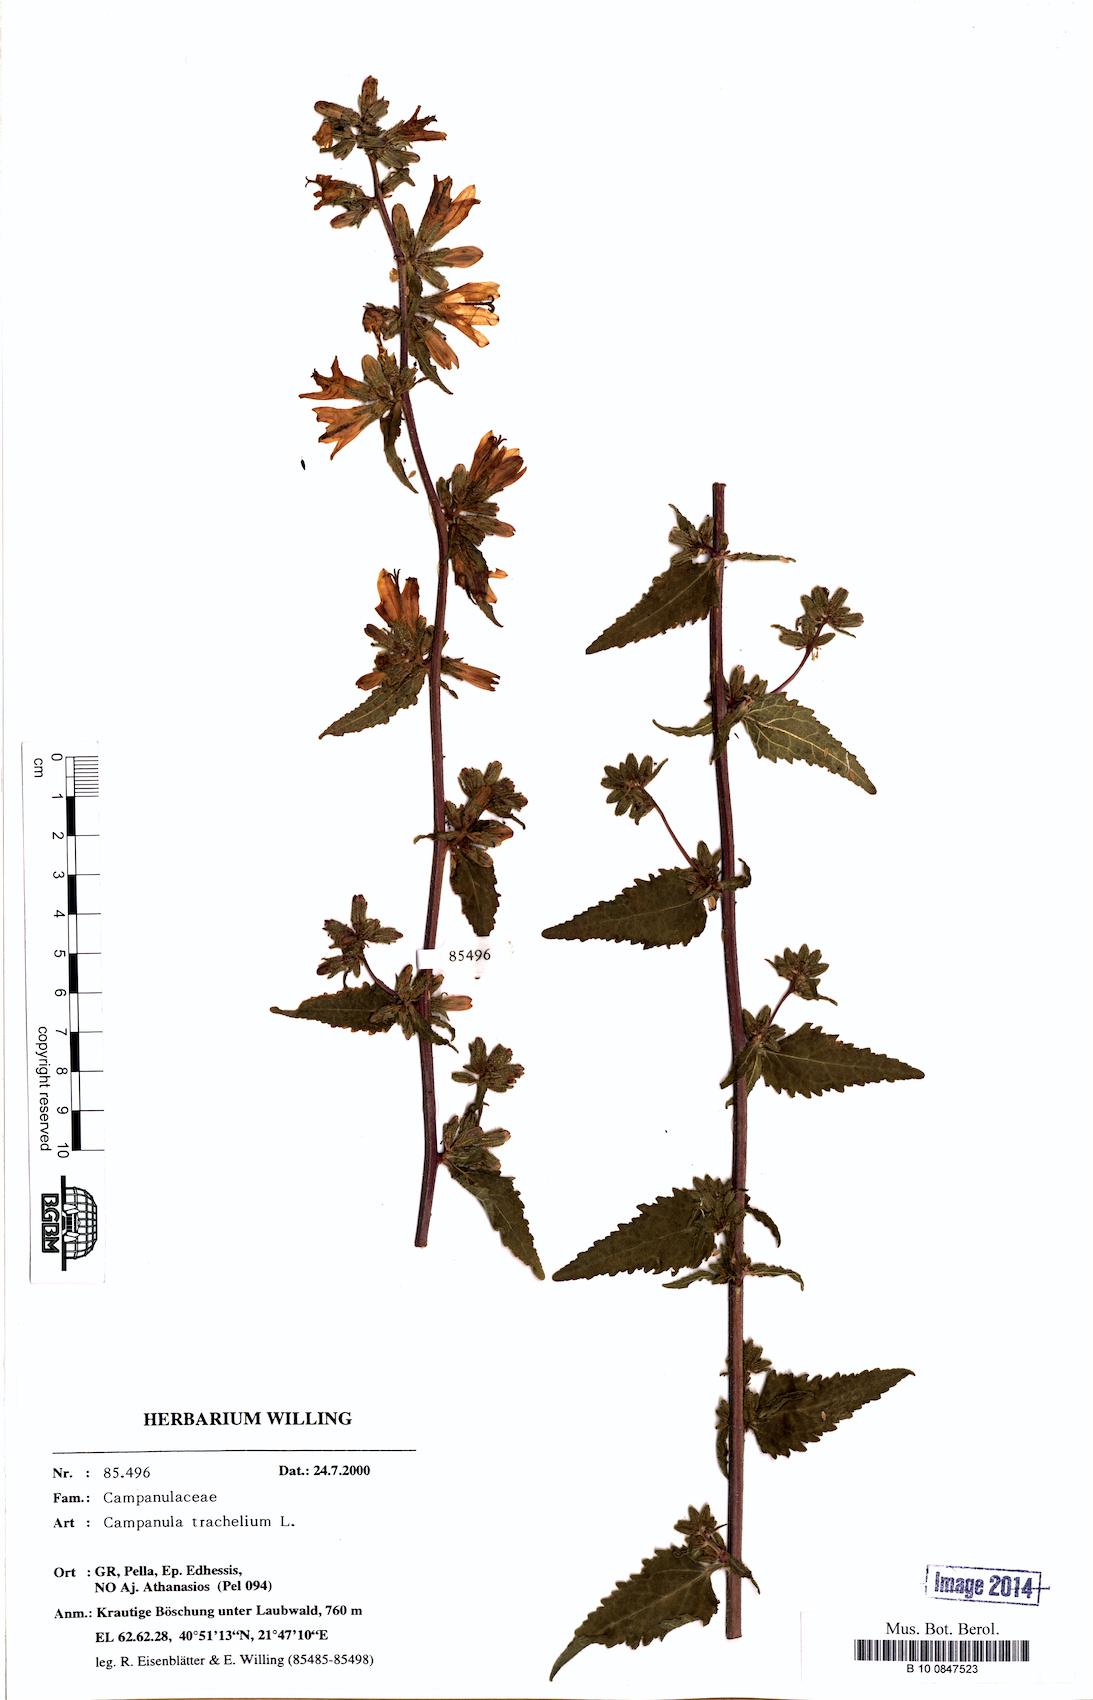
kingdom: Plantae
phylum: Tracheophyta
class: Magnoliopsida
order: Asterales
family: Campanulaceae
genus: Campanula
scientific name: Campanula trachelium
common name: Nettle-leaved bellflower
